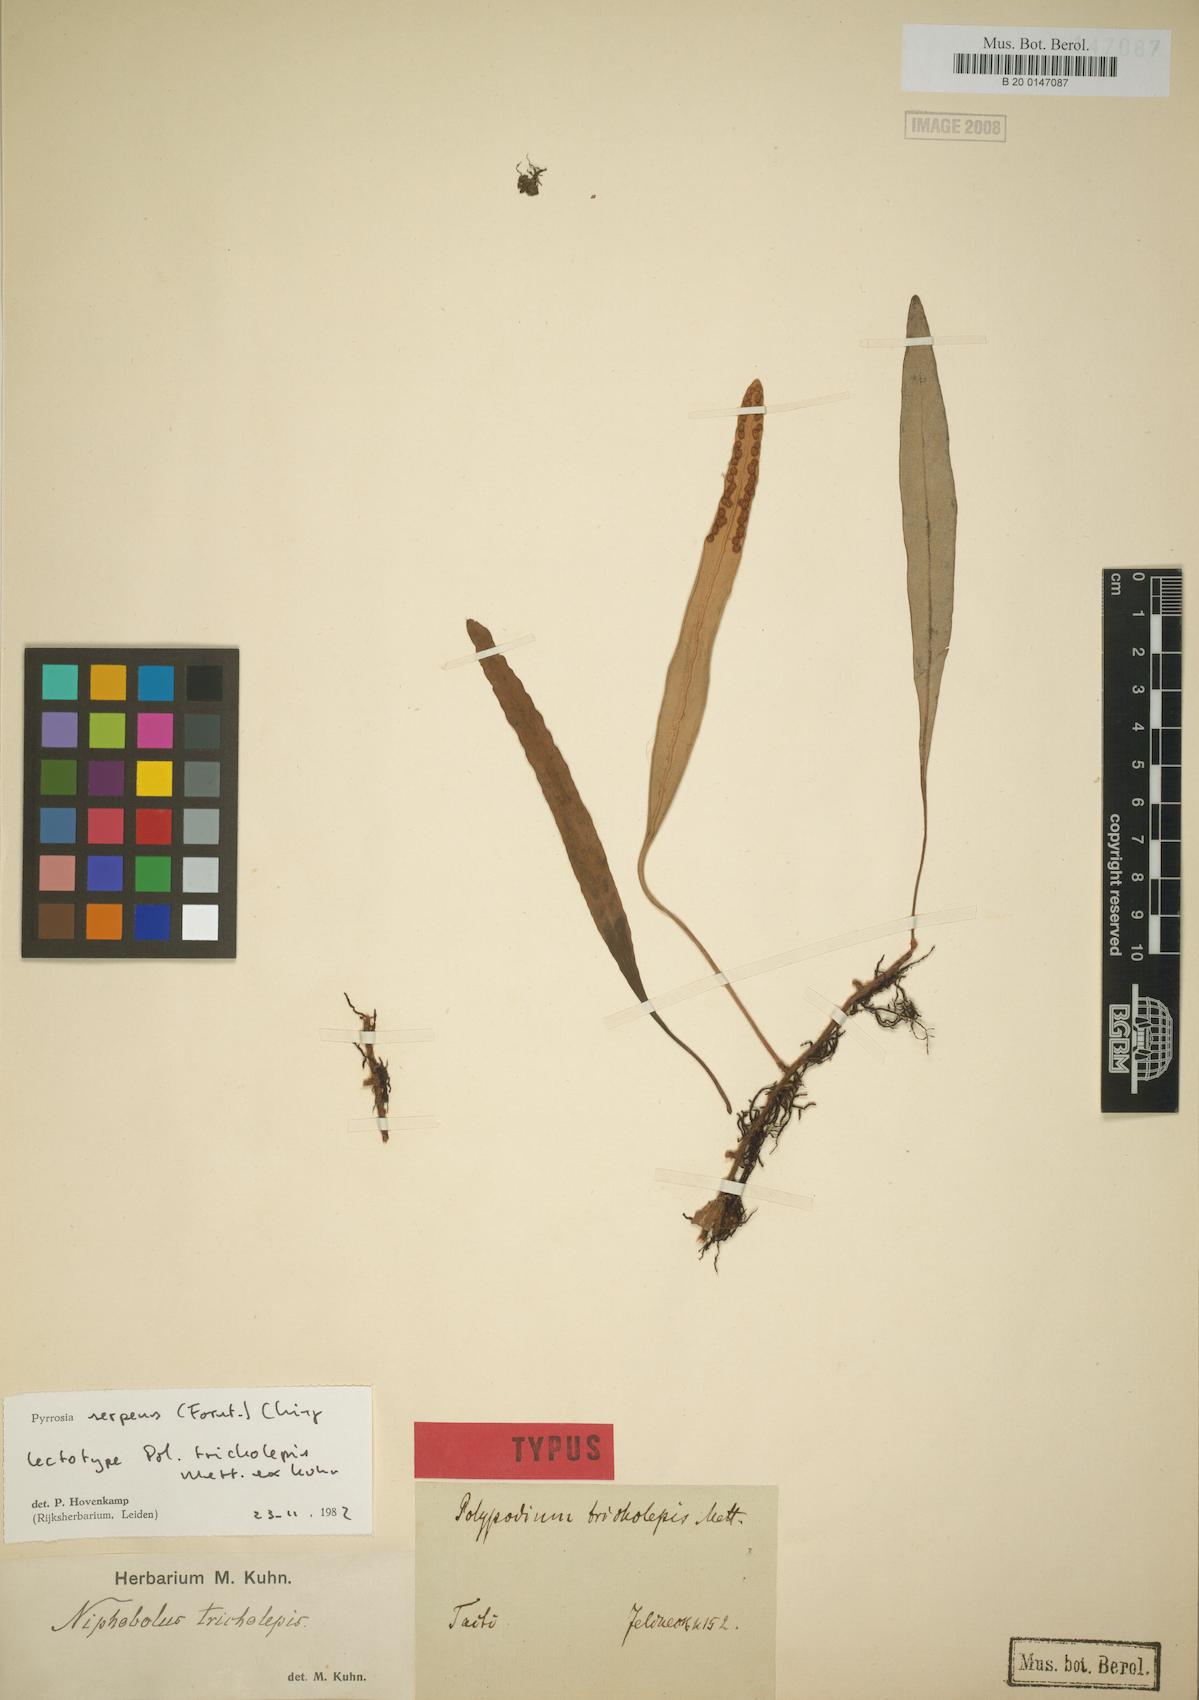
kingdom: Plantae
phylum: Tracheophyta
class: Polypodiopsida
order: Polypodiales
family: Polypodiaceae
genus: Pyrrosia
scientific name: Pyrrosia serpens
